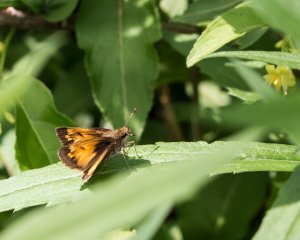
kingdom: Animalia
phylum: Arthropoda
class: Insecta
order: Lepidoptera
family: Hesperiidae
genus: Lon
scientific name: Lon hobomok
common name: Hobomok Skipper
